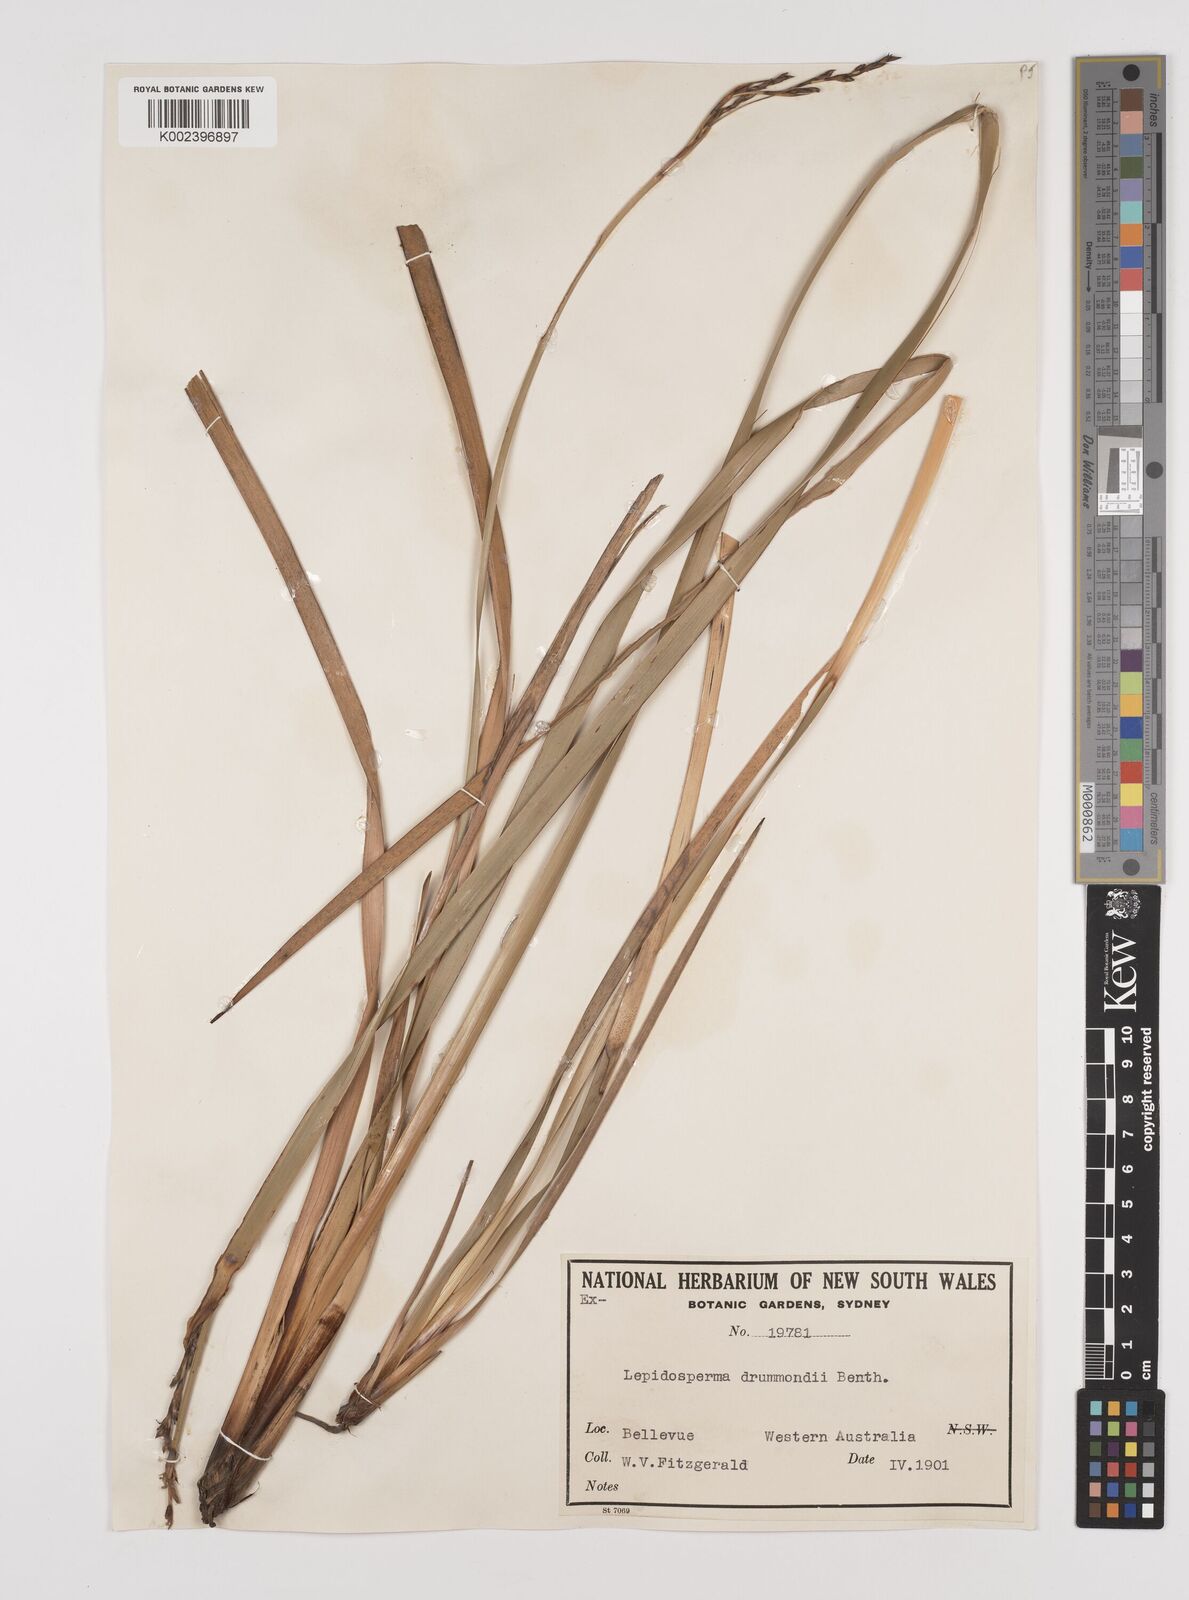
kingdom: Plantae
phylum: Tracheophyta
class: Liliopsida
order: Poales
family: Cyperaceae
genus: Lepidosperma
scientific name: Lepidosperma drummondii
